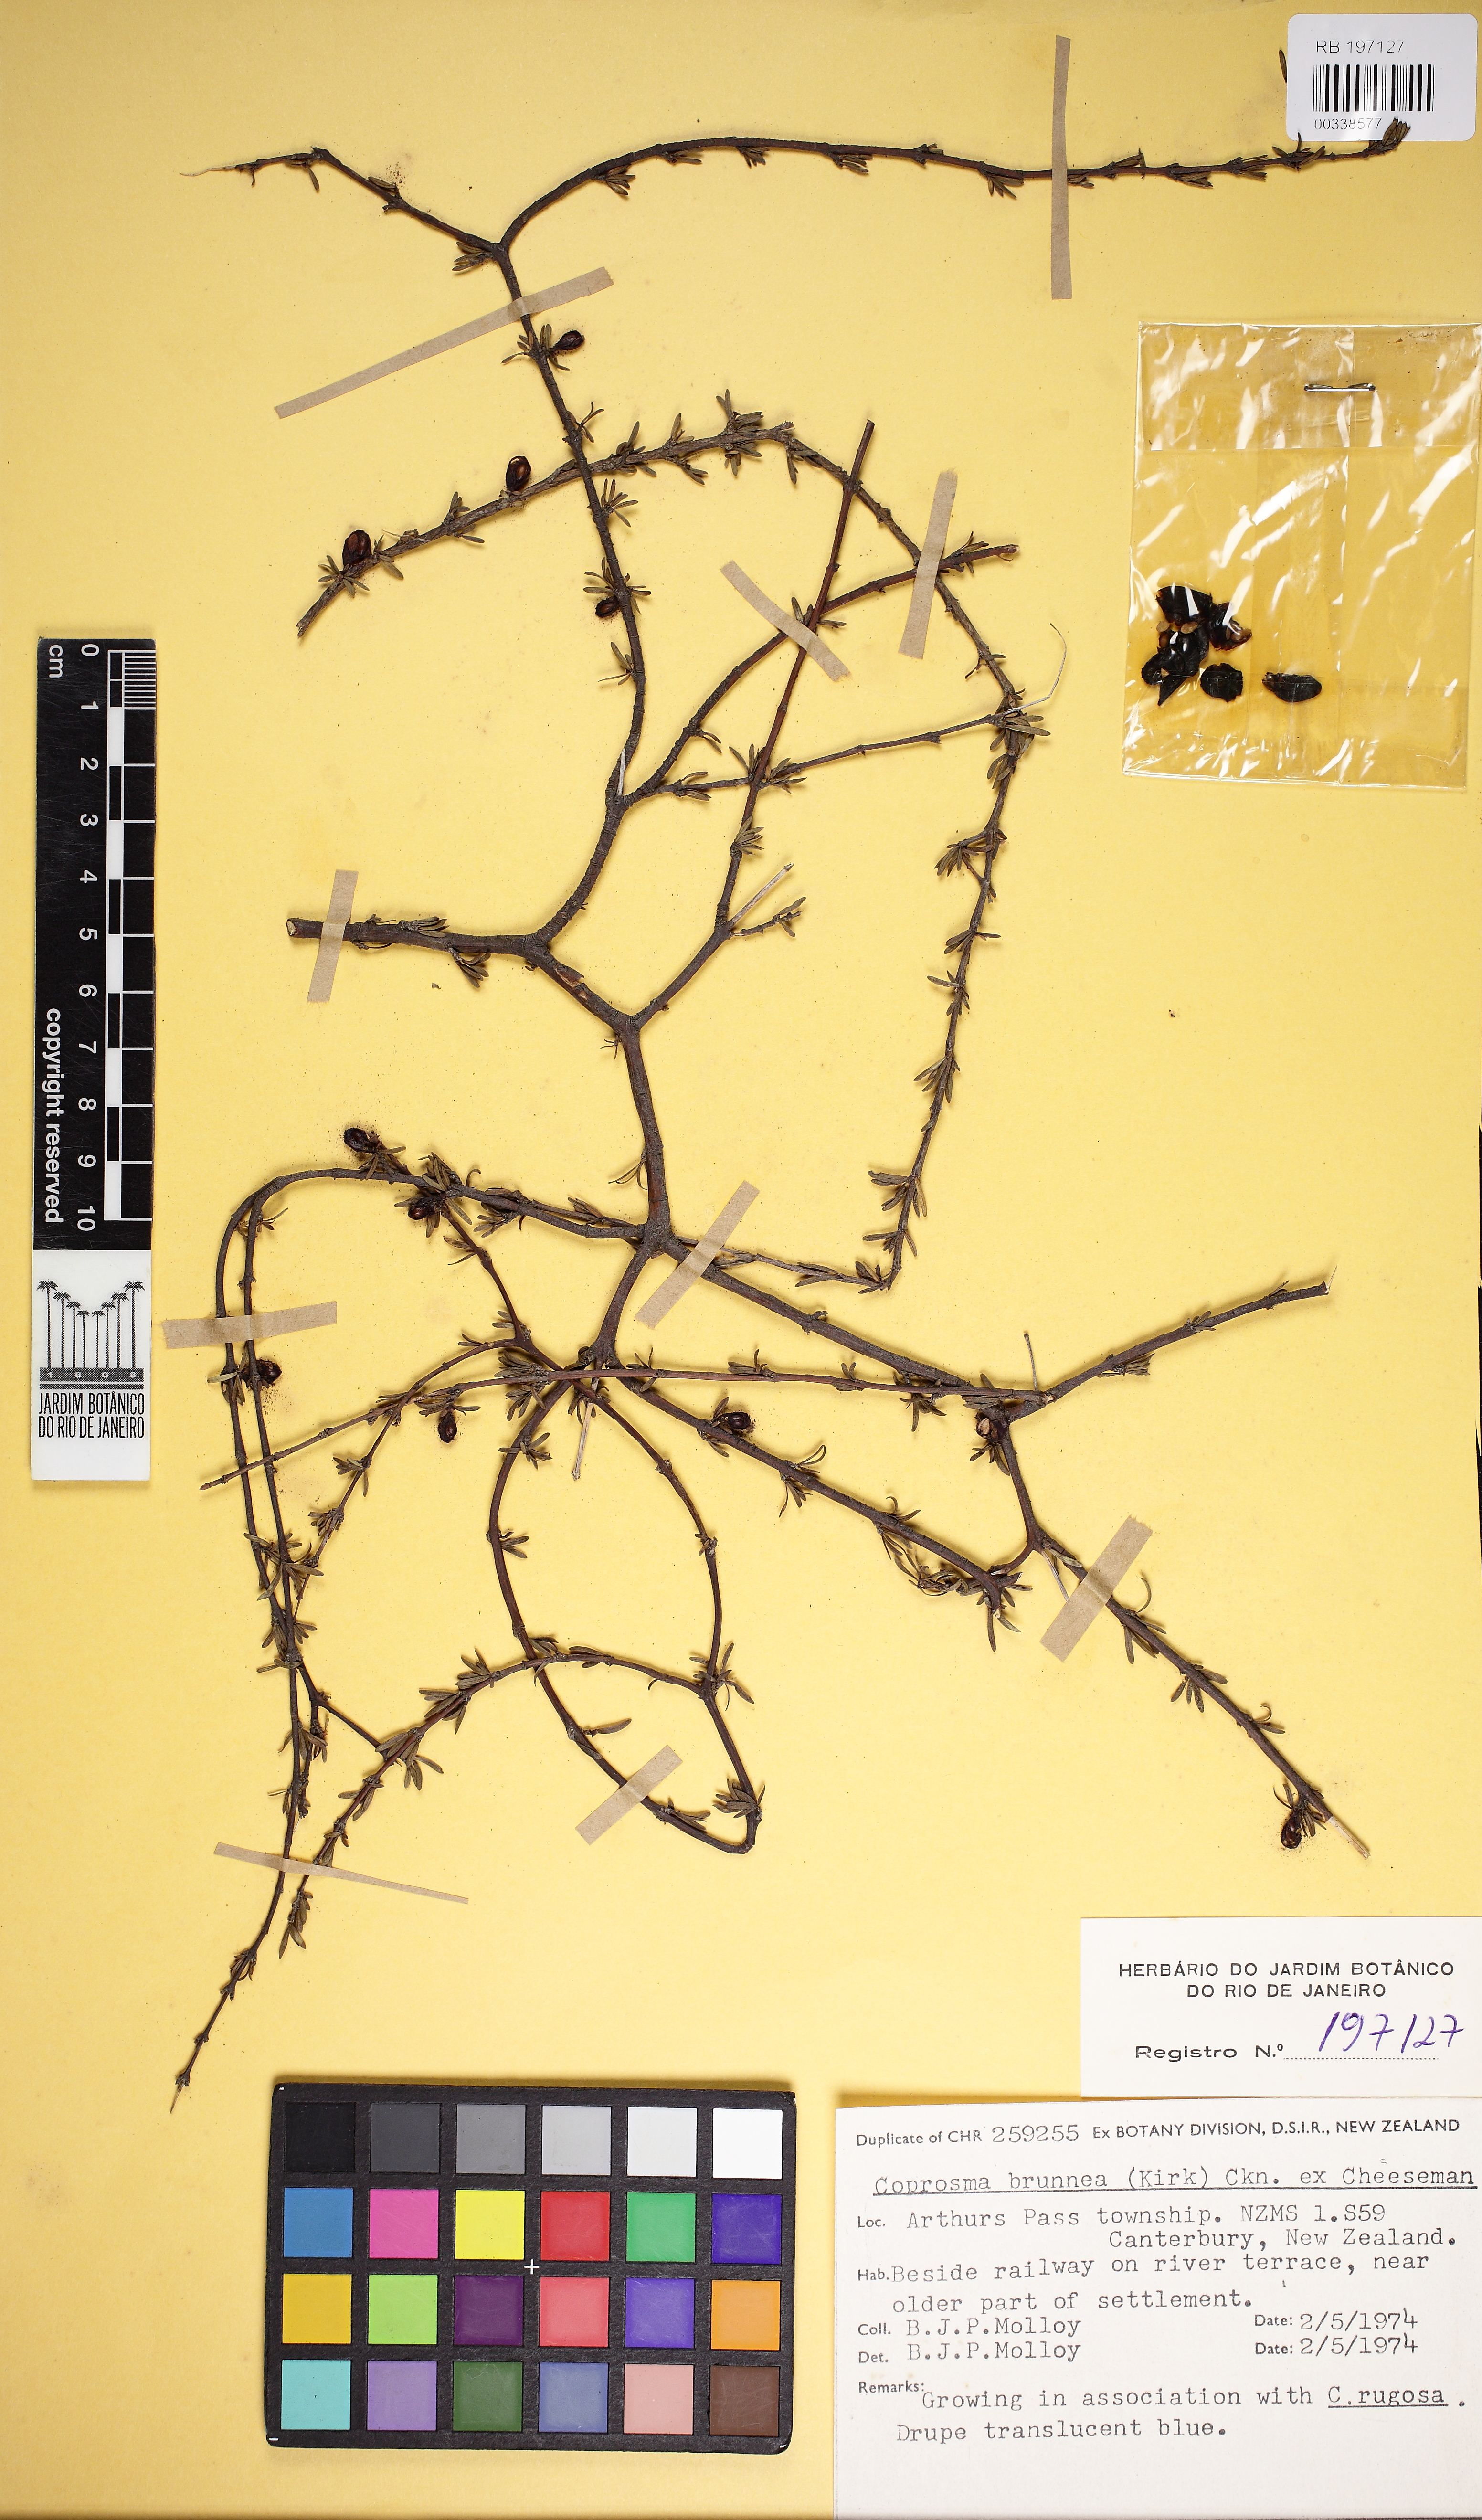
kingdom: Plantae
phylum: Tracheophyta
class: Magnoliopsida
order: Gentianales
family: Rubiaceae
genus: Coprosma
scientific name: Coprosma acerosa
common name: Sand coprosma
